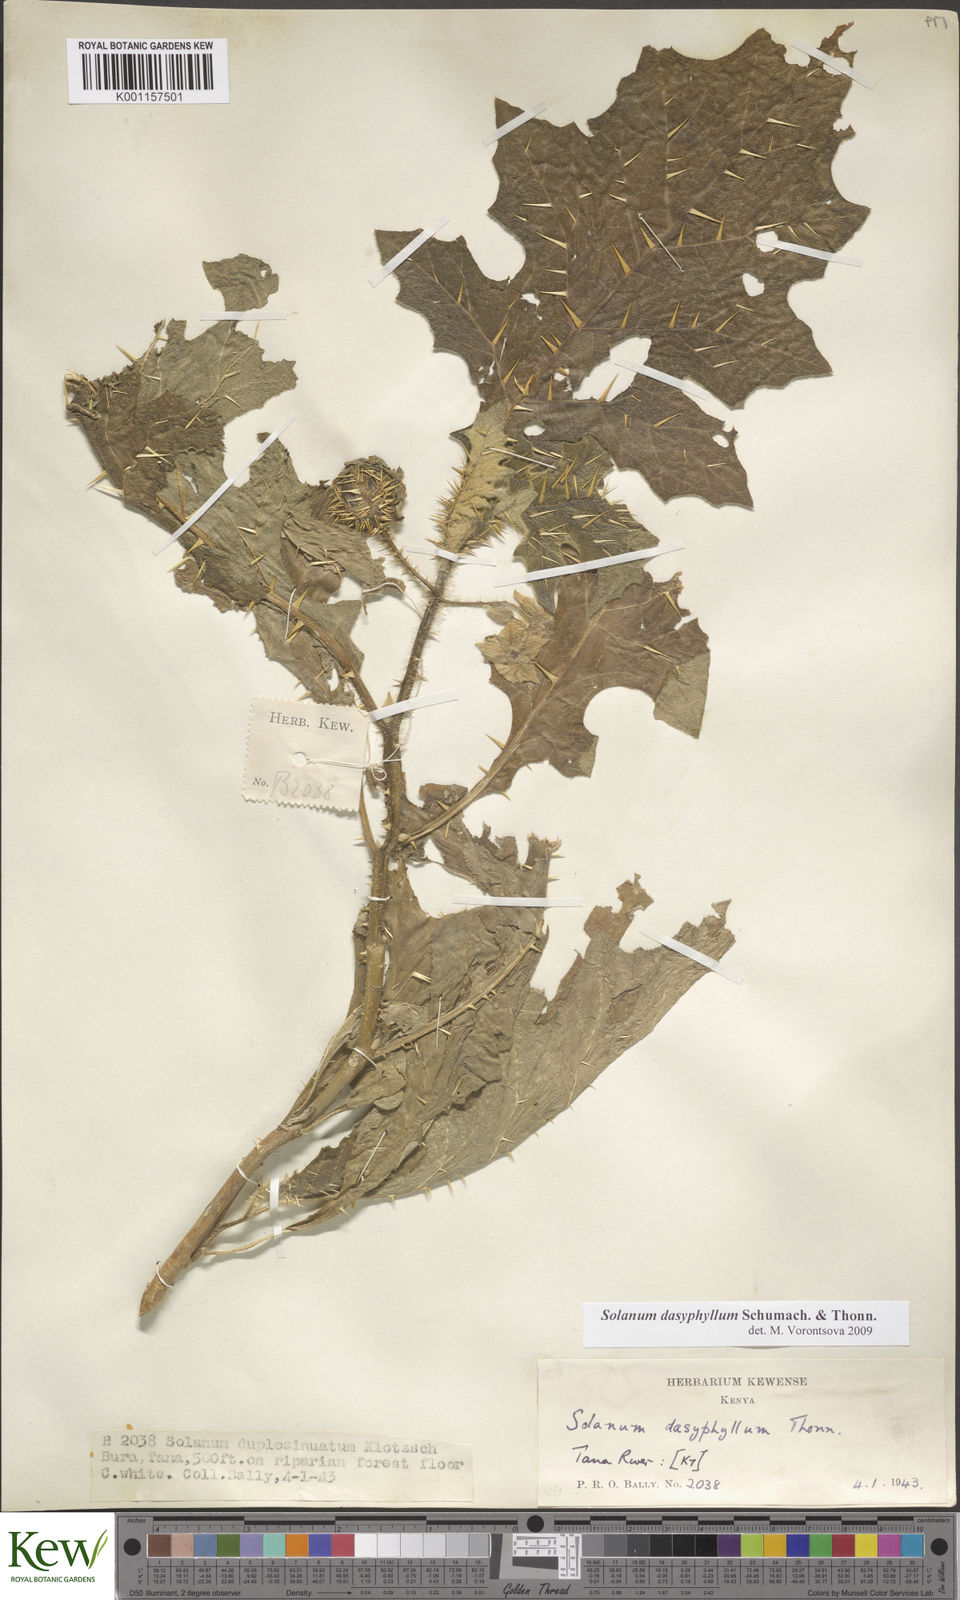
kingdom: Plantae
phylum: Tracheophyta
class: Magnoliopsida
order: Solanales
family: Solanaceae
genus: Solanum
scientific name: Solanum dasyphyllum
